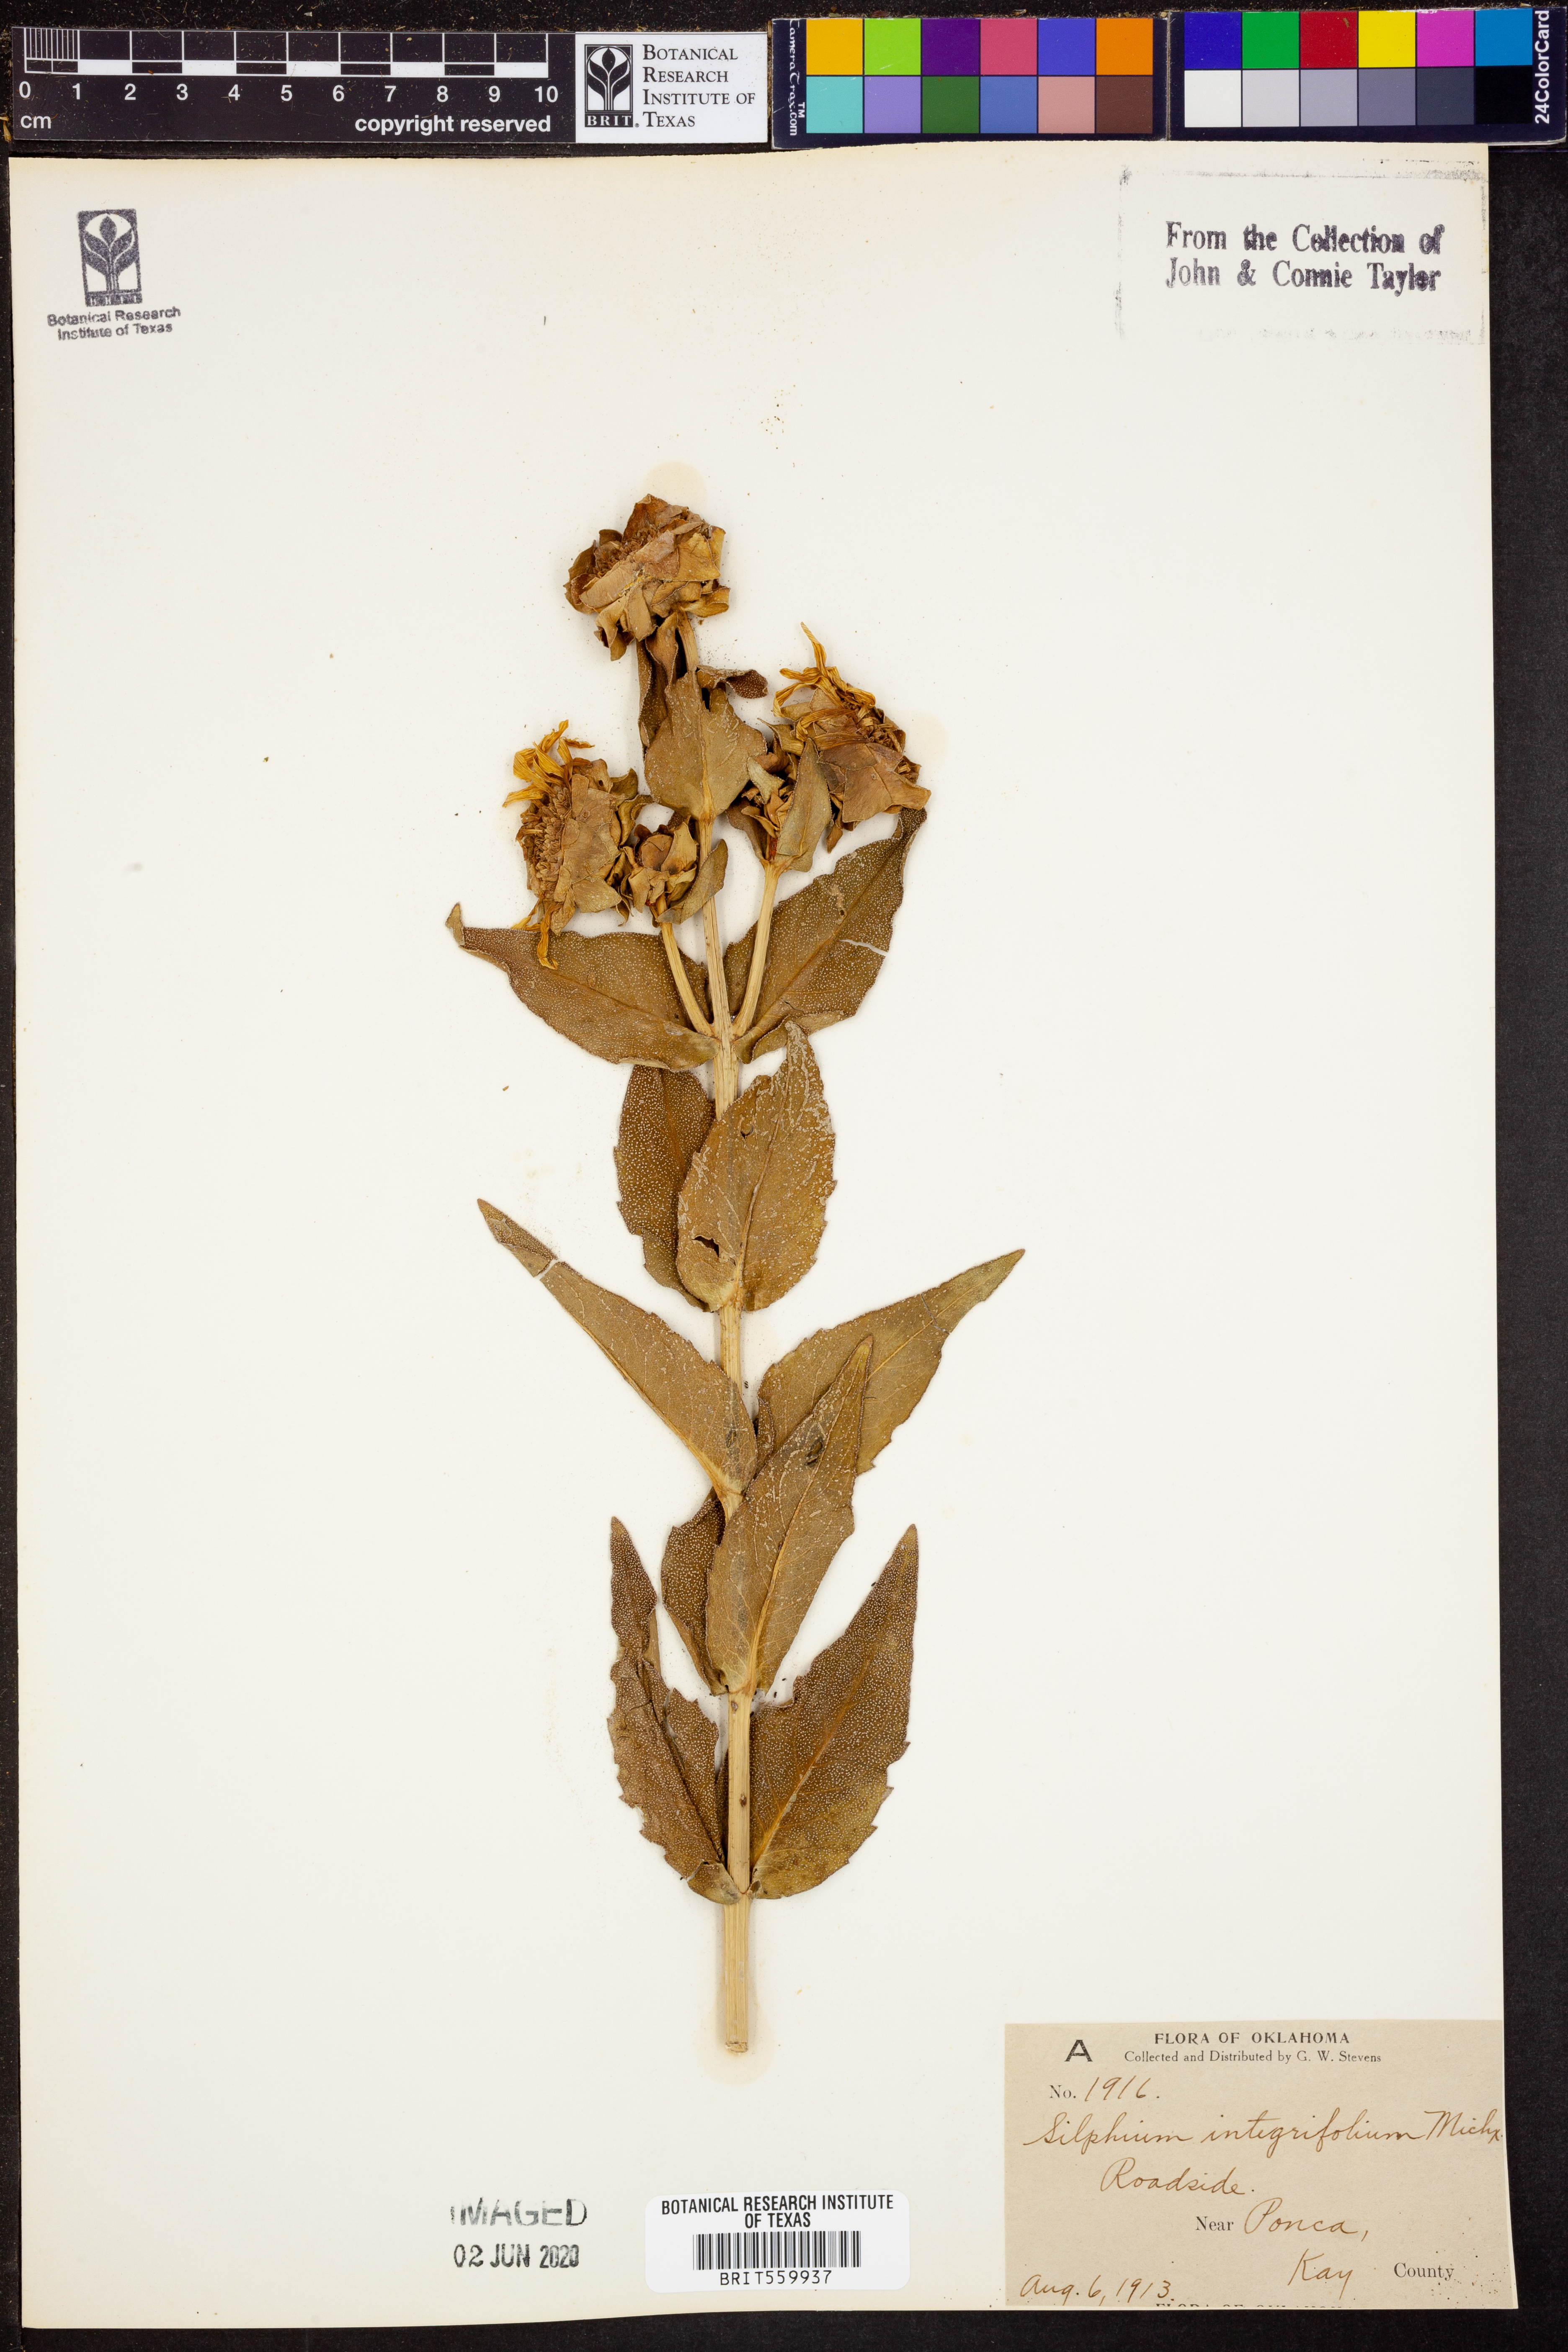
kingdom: Plantae
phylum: Tracheophyta
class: Magnoliopsida
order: Asterales
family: Asteraceae
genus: Silphium
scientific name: Silphium integrifolium
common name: Whole-leaf rosinweed
